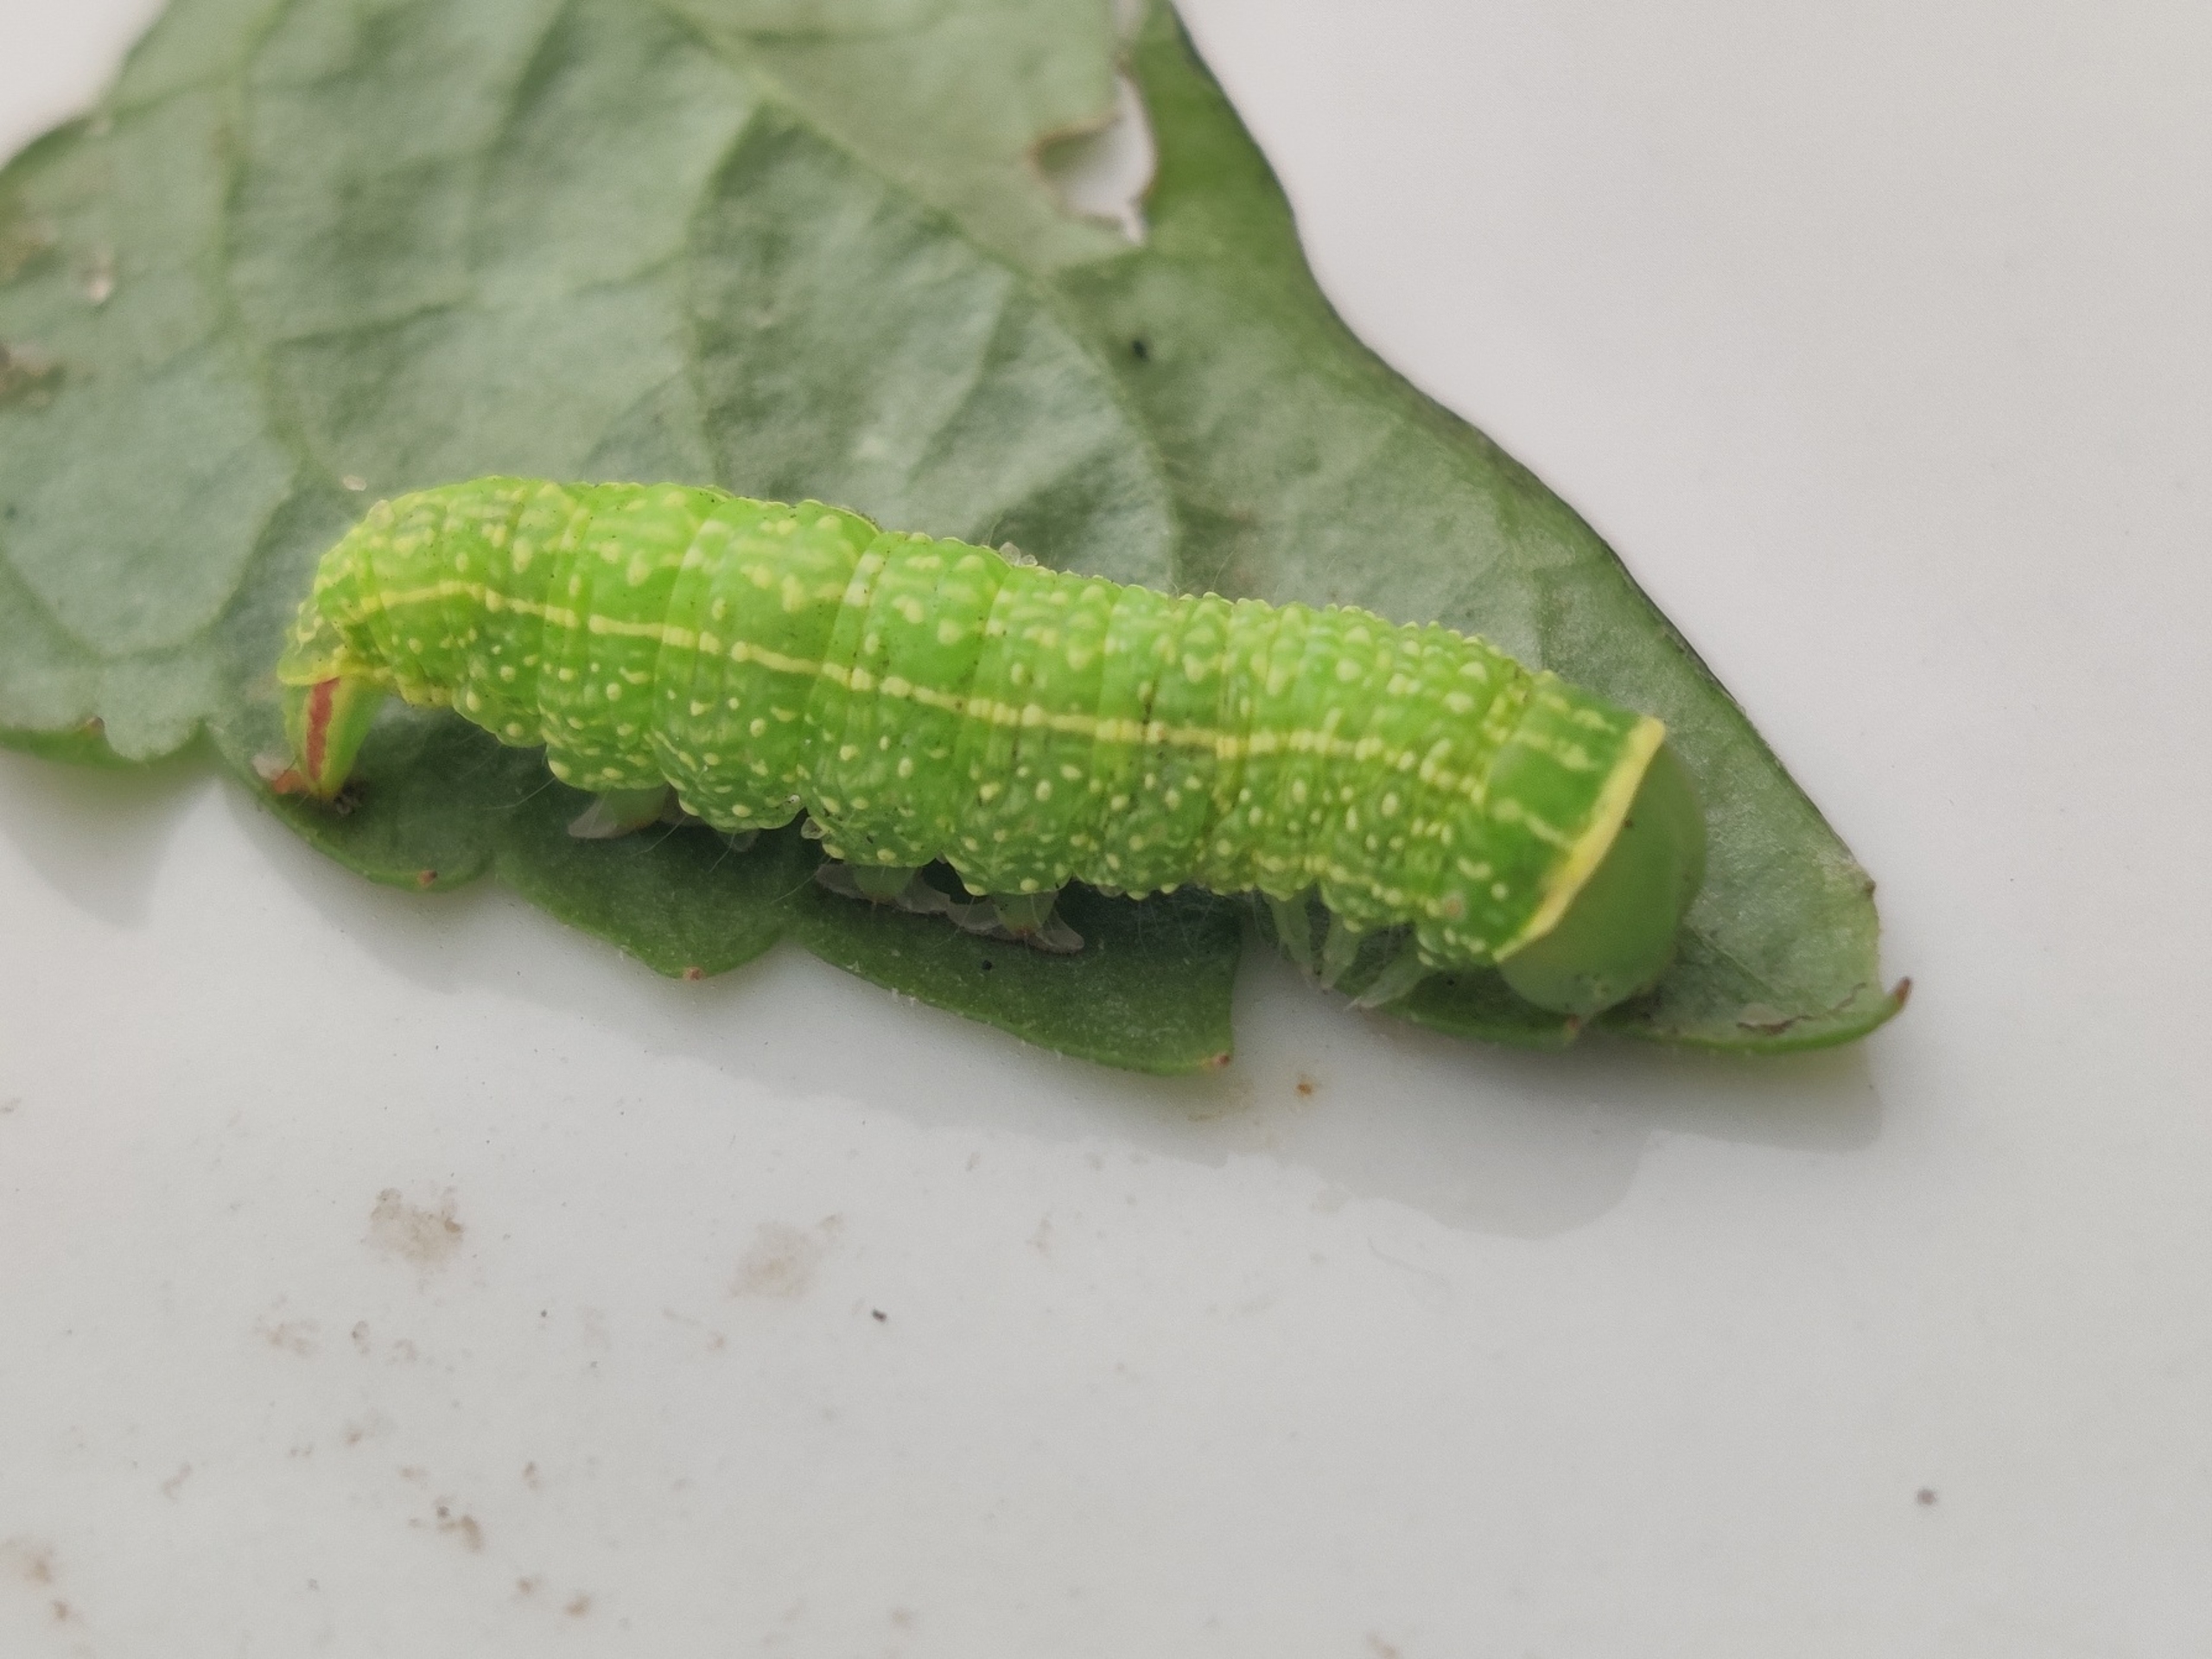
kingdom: Animalia
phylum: Arthropoda
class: Insecta
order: Lepidoptera
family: Nolidae
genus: Pseudoips
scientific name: Pseudoips prasinana
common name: Grøn bøgeugle
